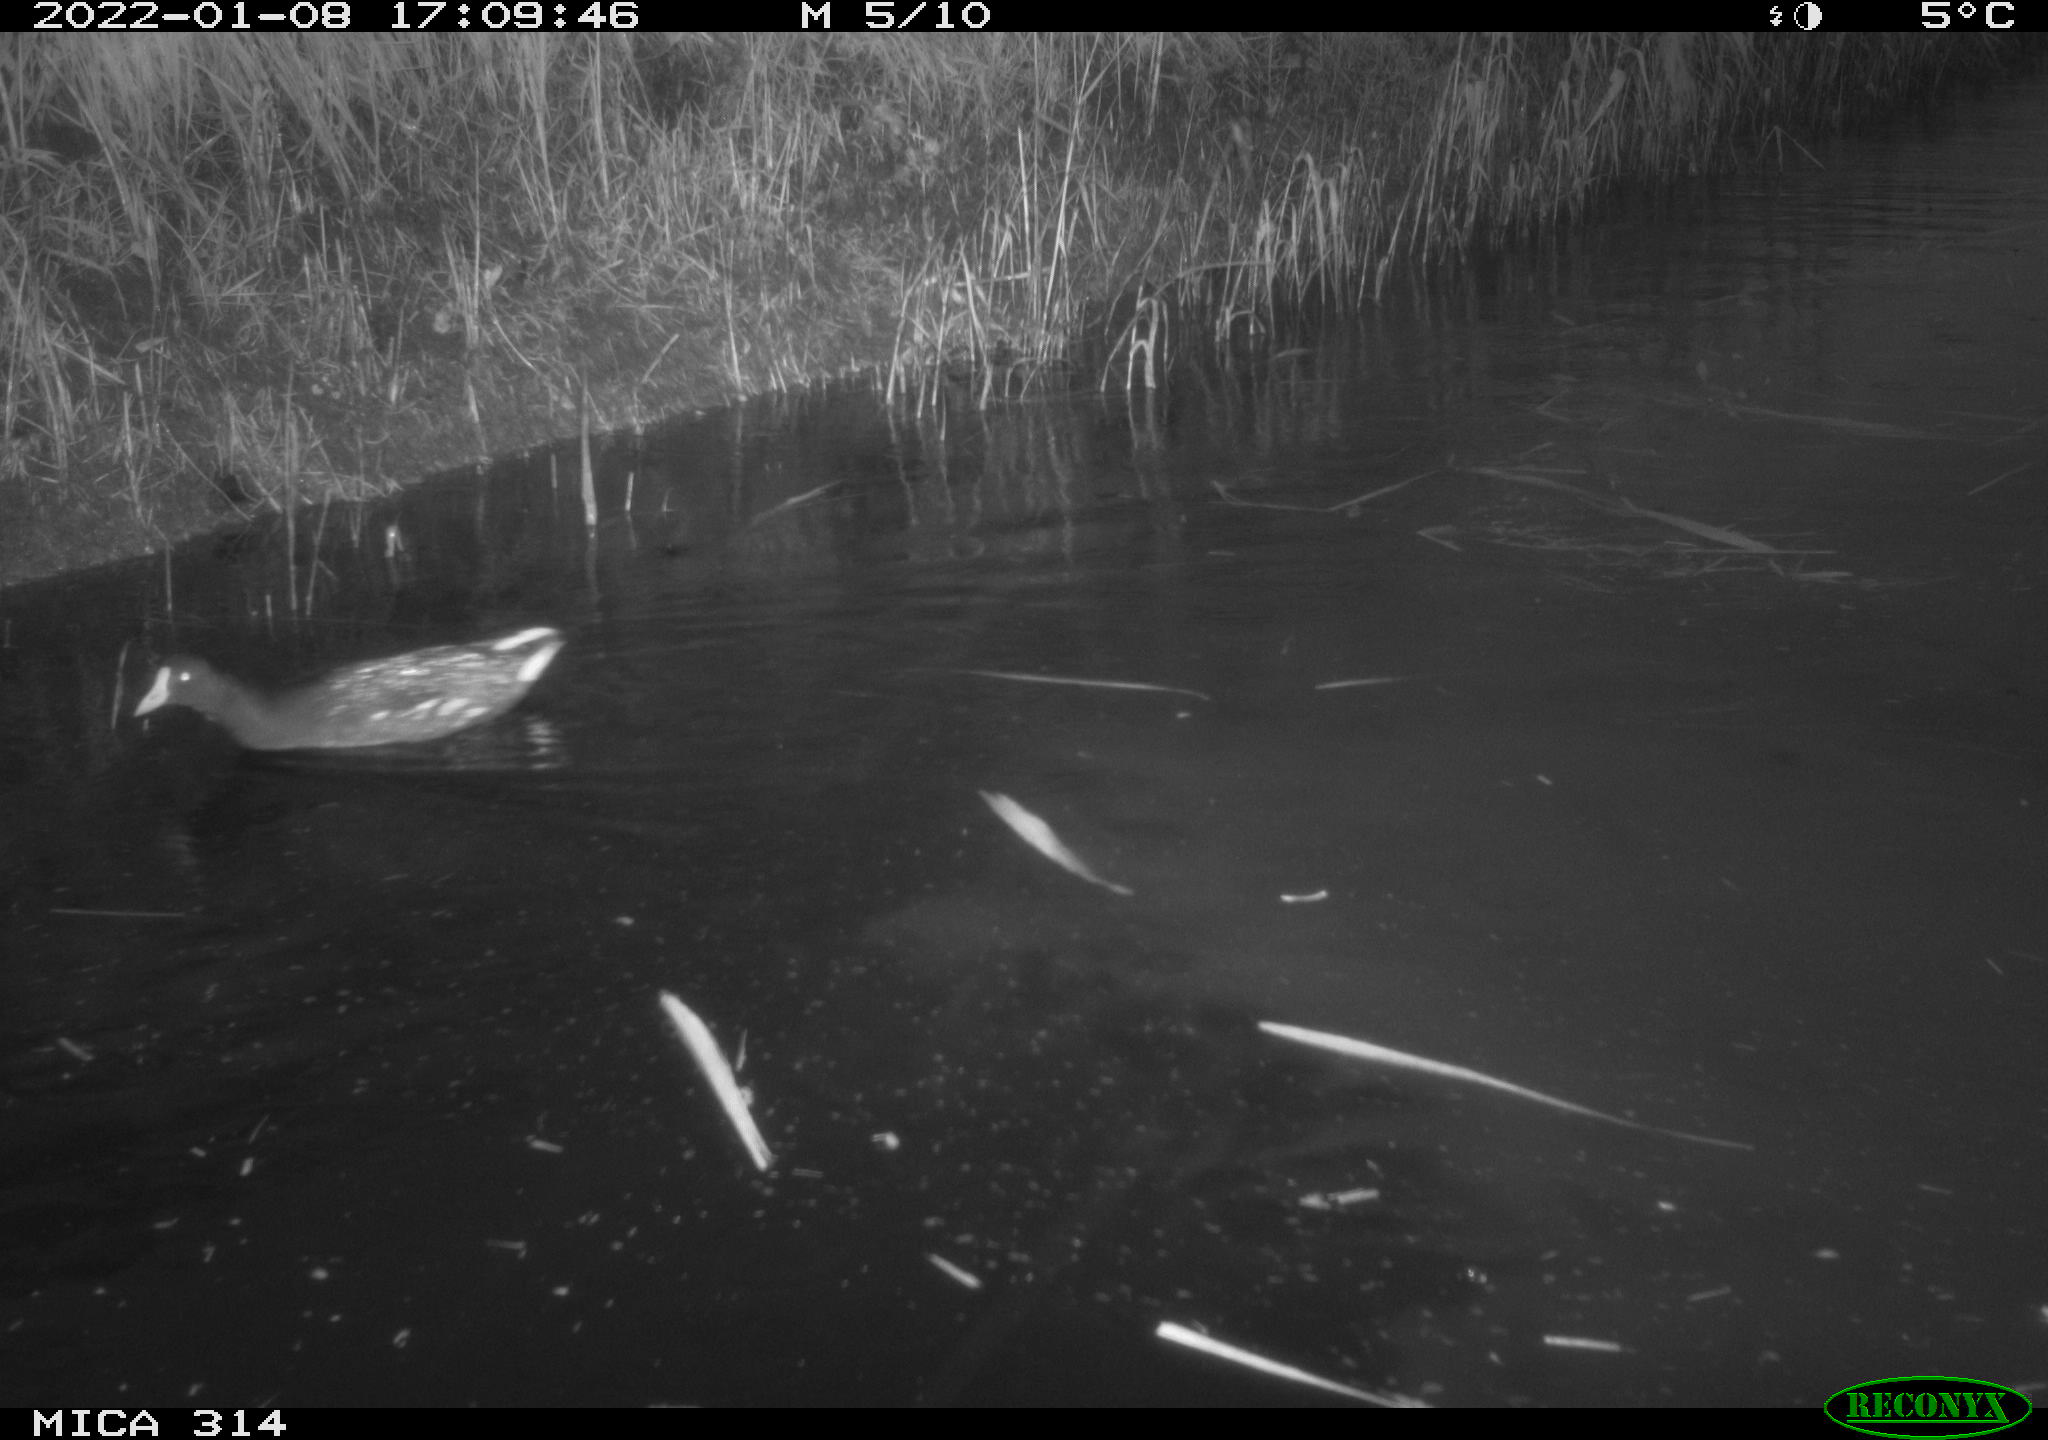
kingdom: Animalia
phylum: Chordata
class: Aves
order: Anseriformes
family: Anatidae
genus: Anas
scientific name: Anas
